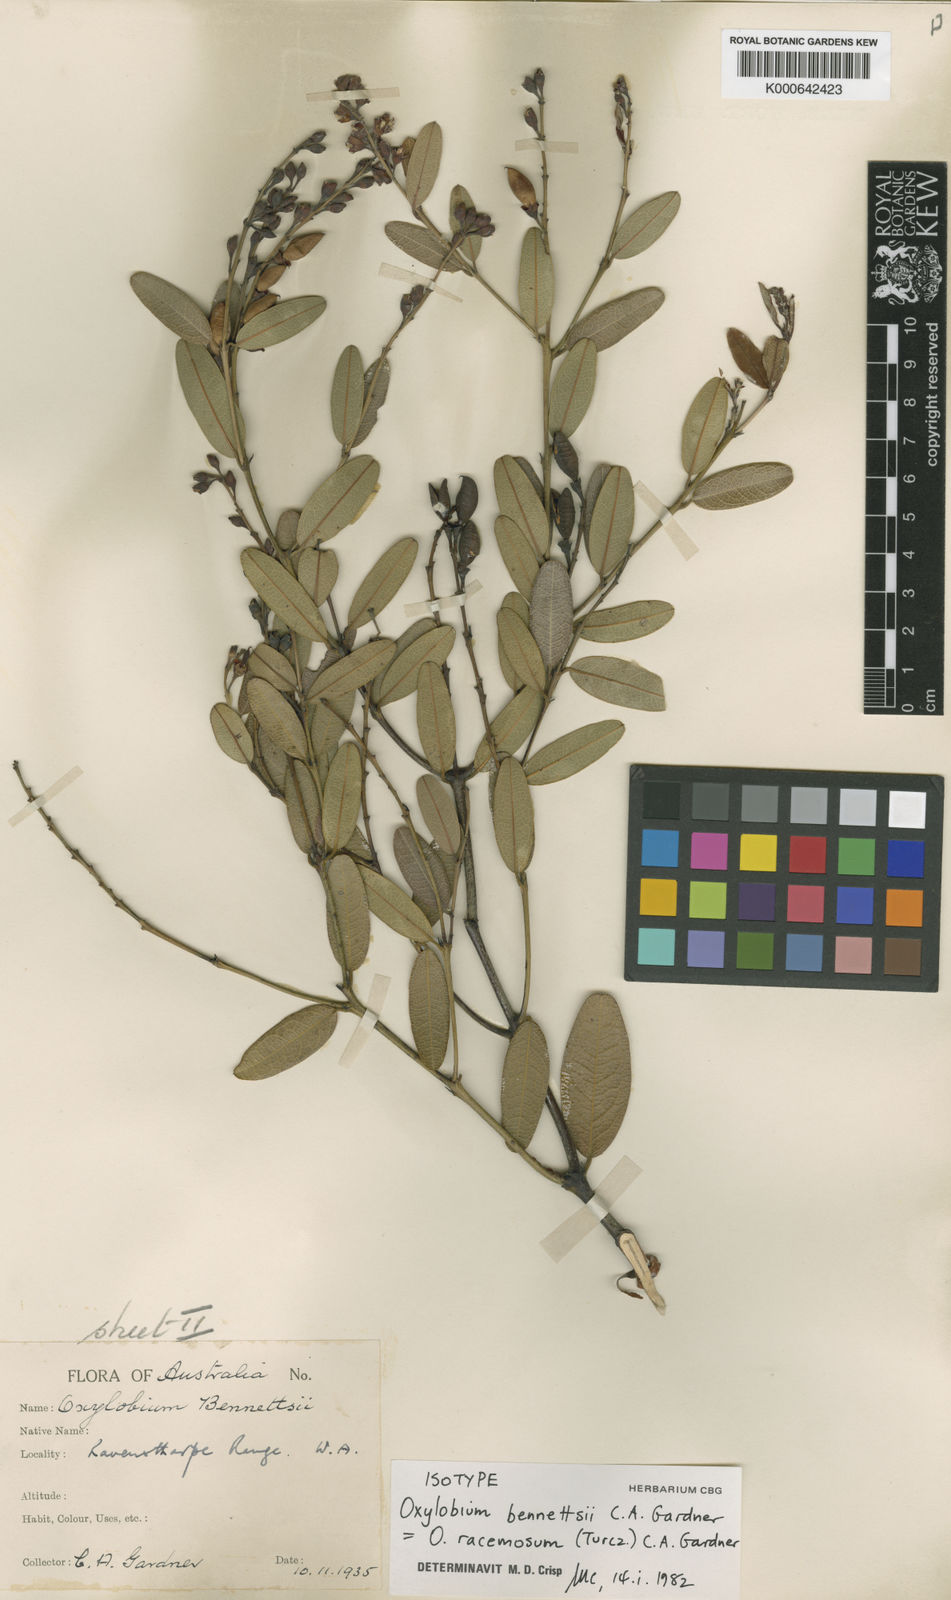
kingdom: Plantae
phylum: Tracheophyta
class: Magnoliopsida
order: Fabales
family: Fabaceae
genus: Gastrolobium
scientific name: Gastrolobium racemosum
